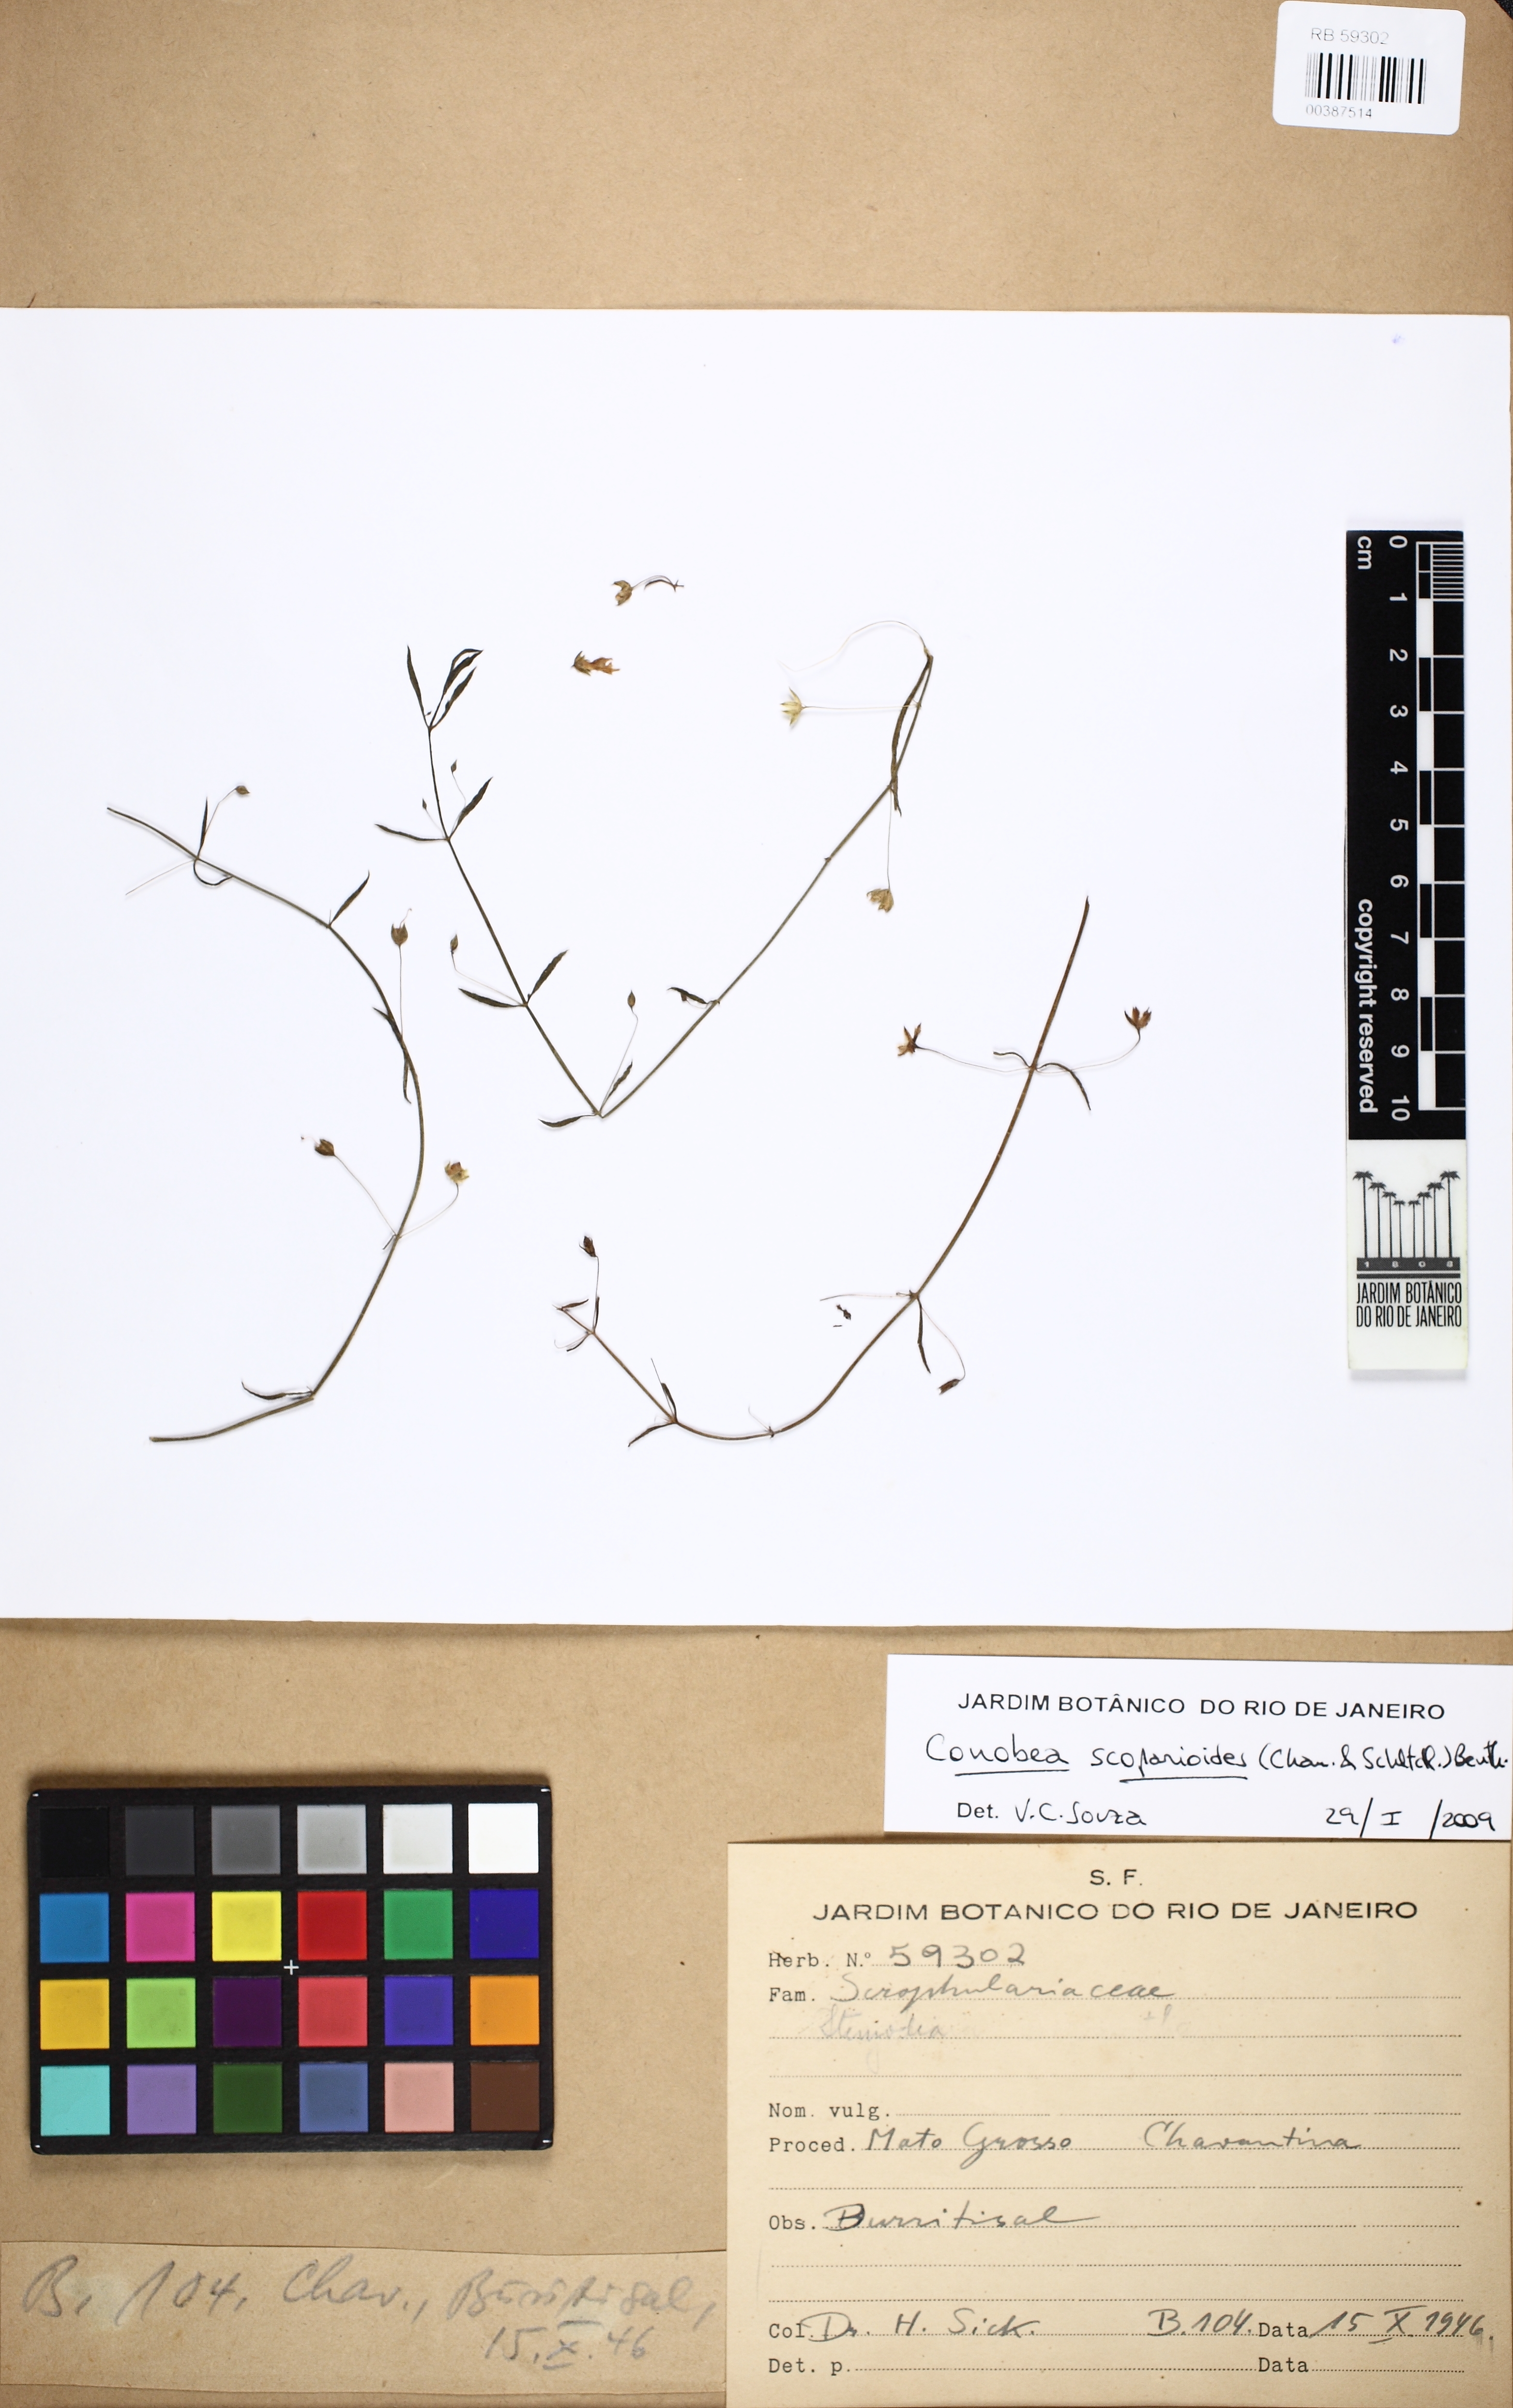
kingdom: Plantae
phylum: Tracheophyta
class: Magnoliopsida
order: Lamiales
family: Plantaginaceae
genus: Conobea
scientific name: Conobea scoparioides
